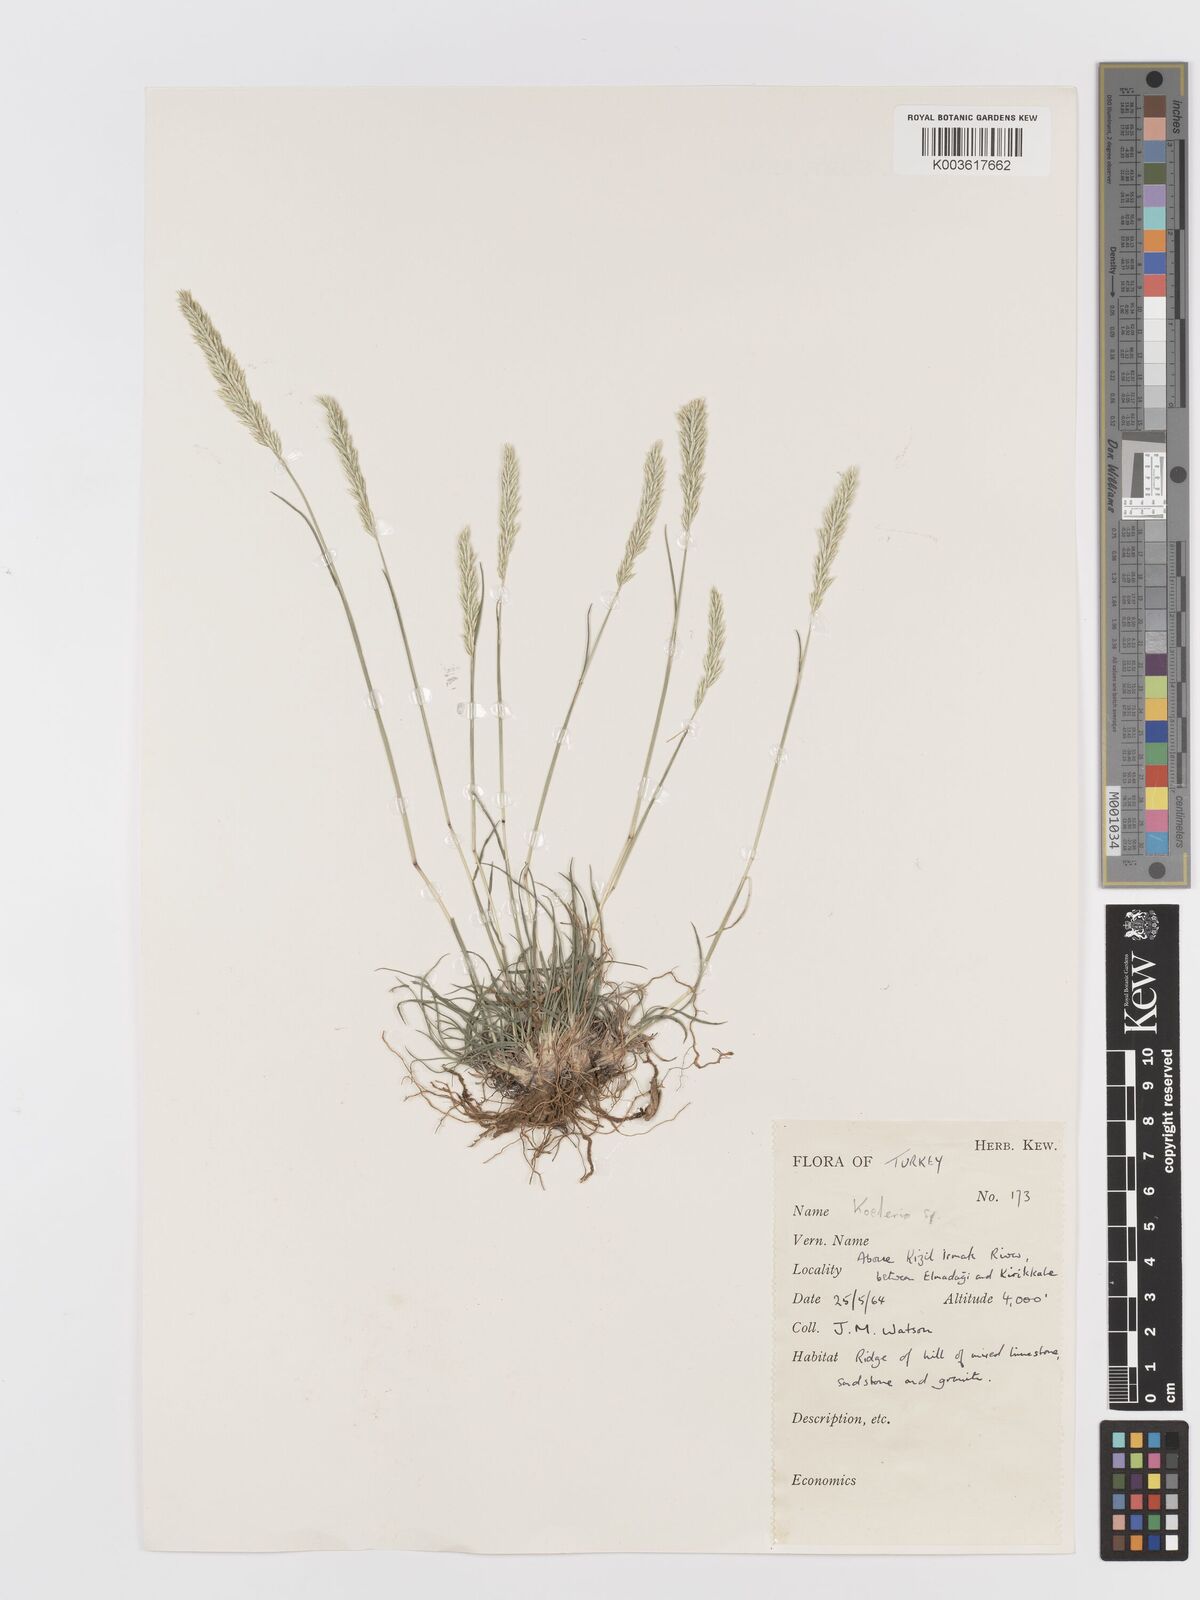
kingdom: Plantae
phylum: Tracheophyta
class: Liliopsida
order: Poales
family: Poaceae
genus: Koeleria
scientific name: Koeleria
